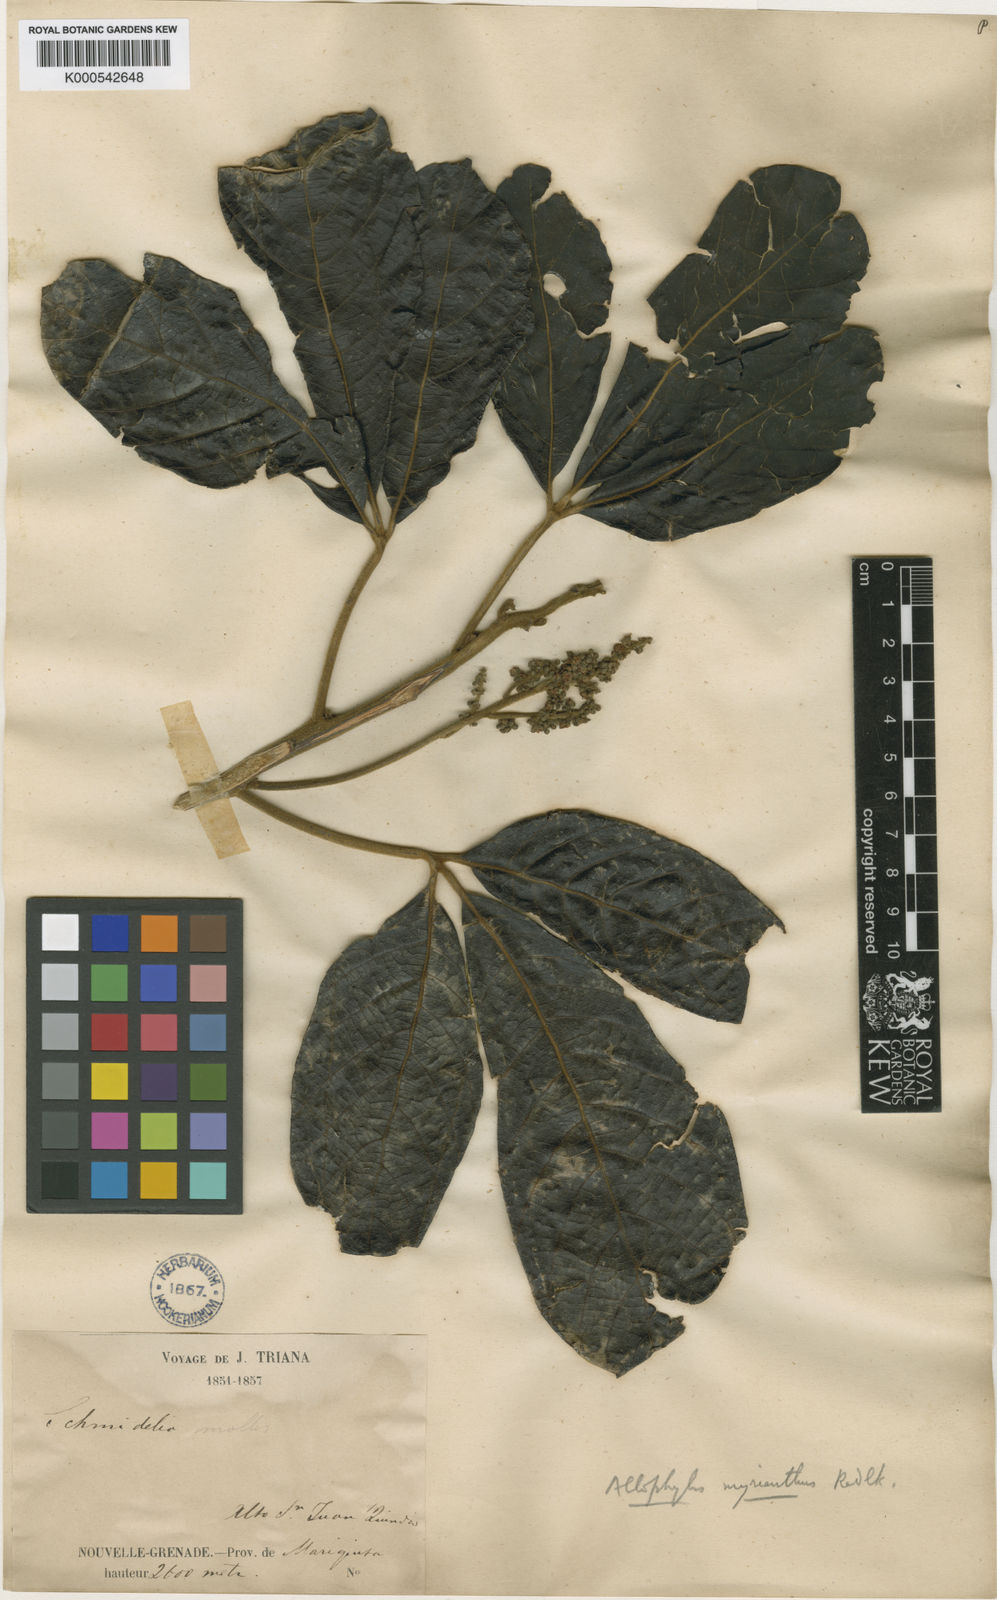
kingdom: Plantae
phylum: Tracheophyta
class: Magnoliopsida
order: Sapindales
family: Sapindaceae
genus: Allophylus
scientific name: Allophylus myrianthus
